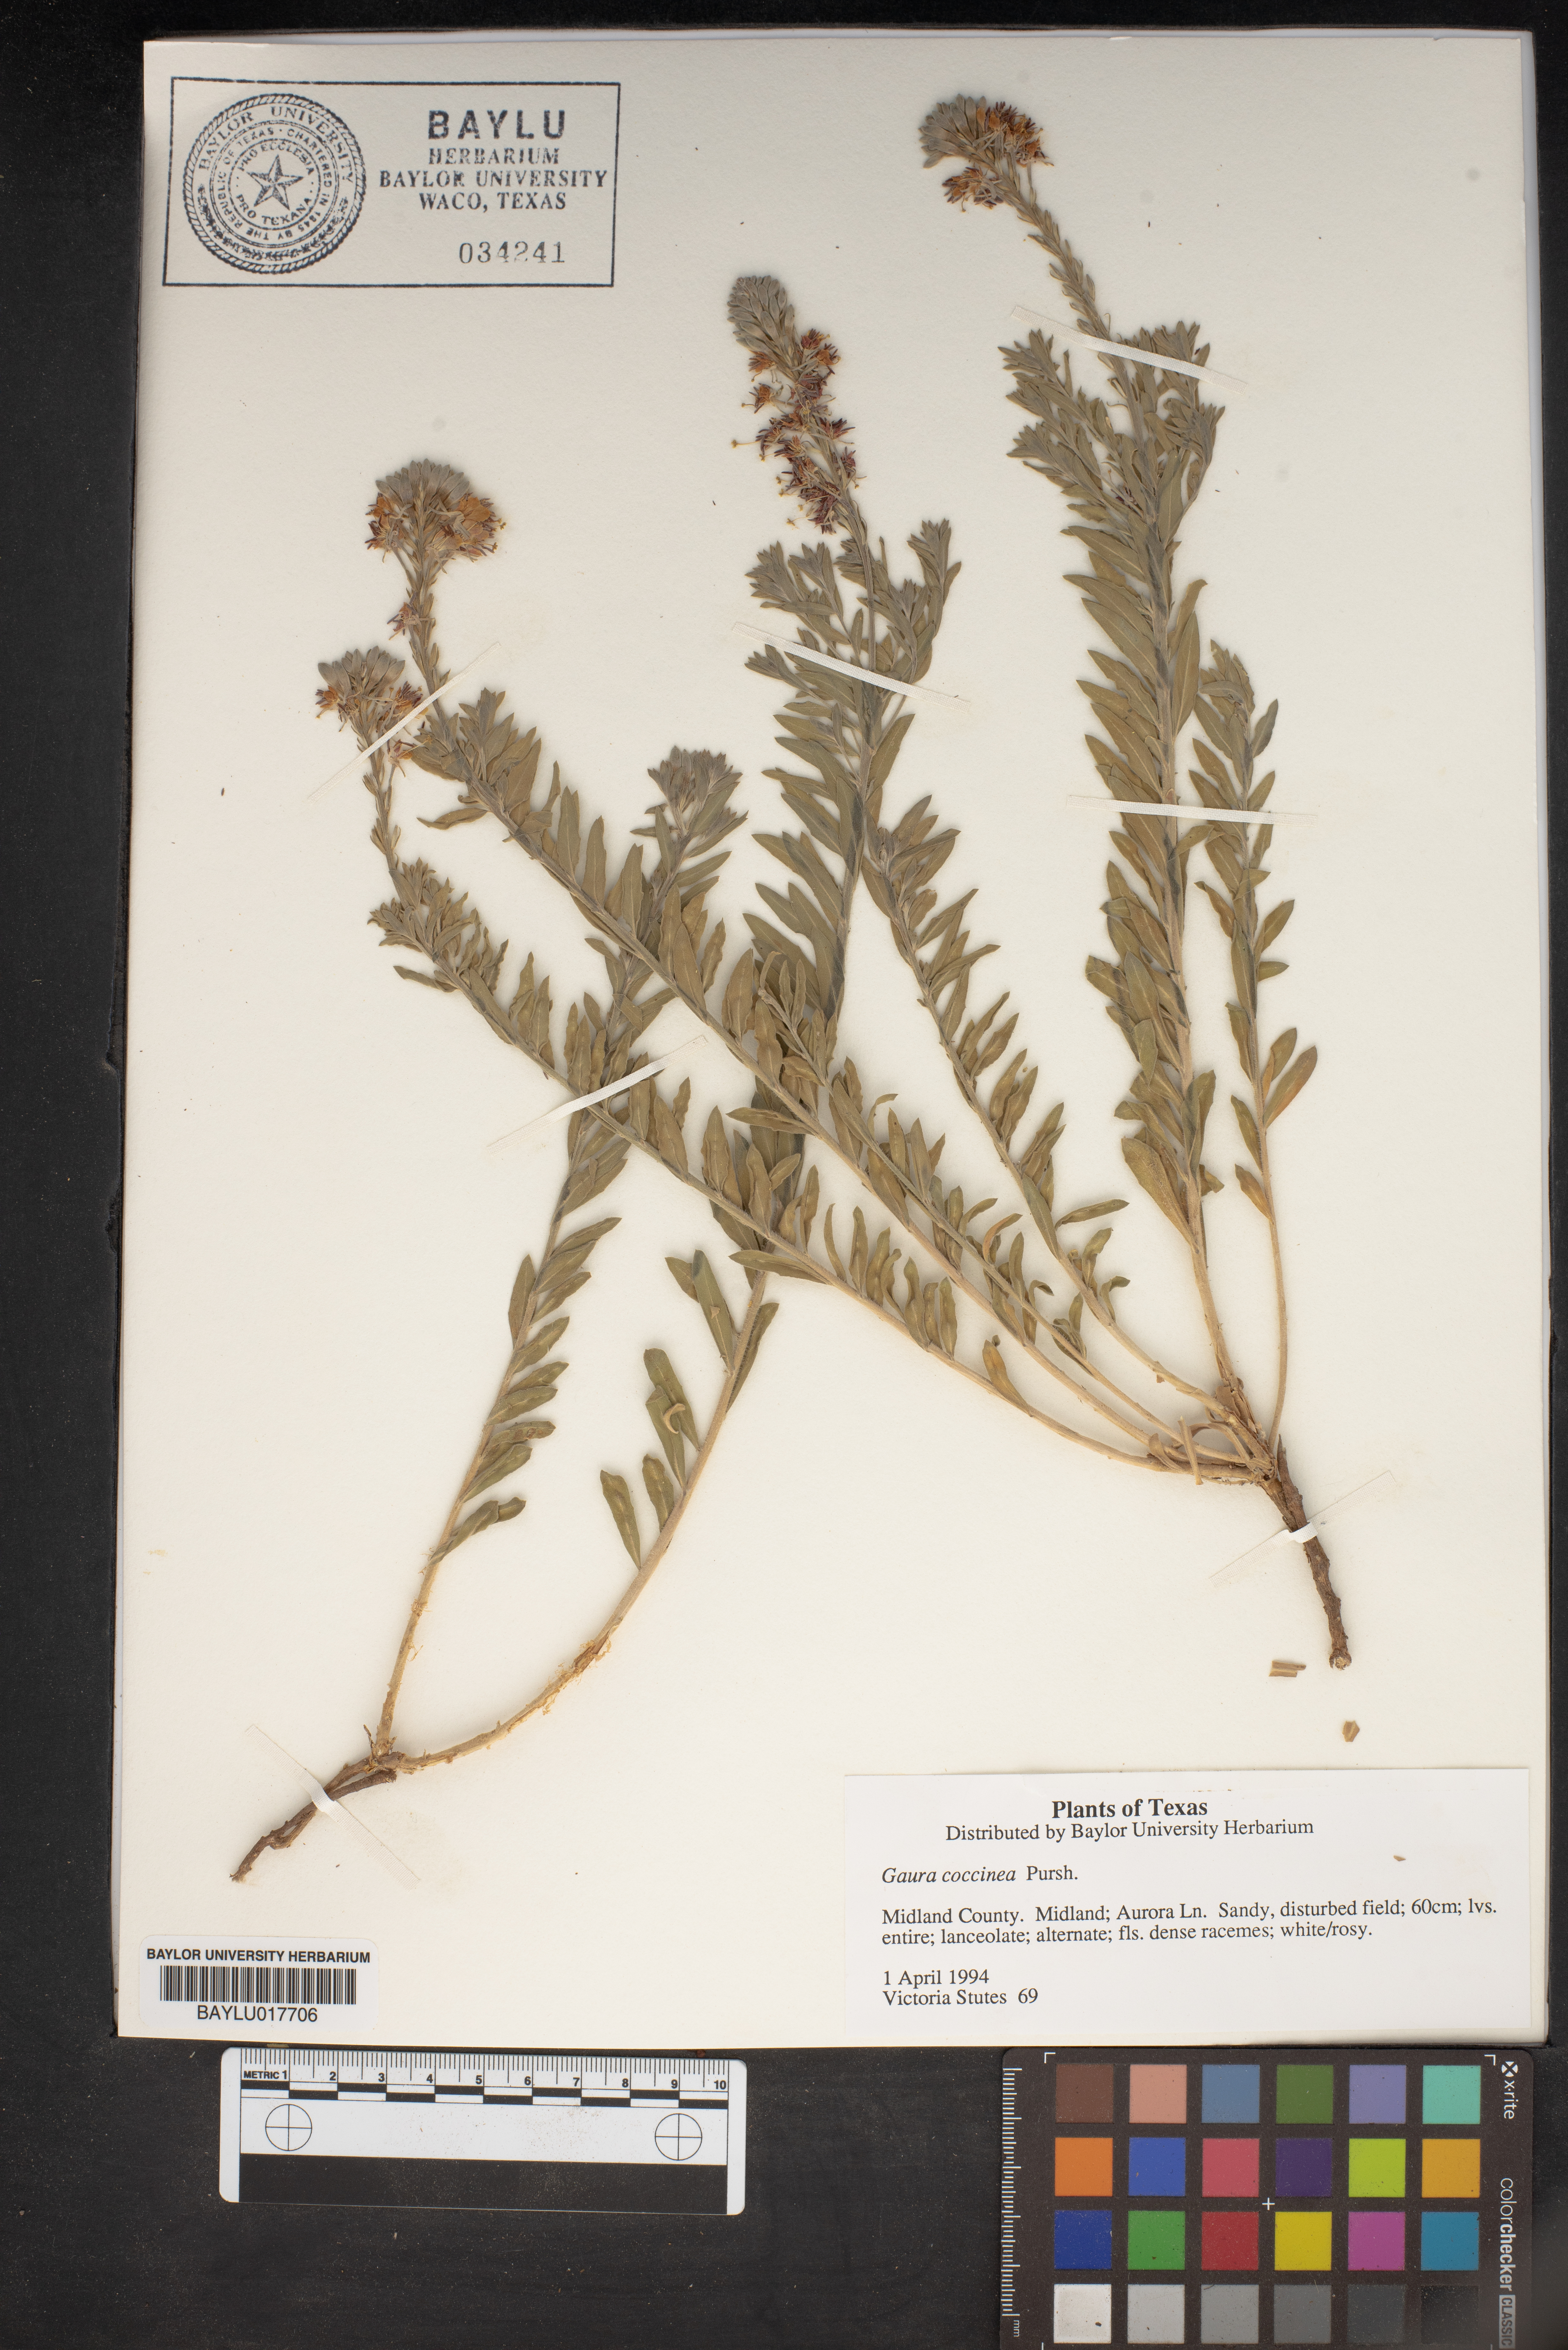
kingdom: Plantae
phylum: Tracheophyta
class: Magnoliopsida
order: Myrtales
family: Onagraceae
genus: Oenothera
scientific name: Oenothera suffrutescens
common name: Scarlet beeblossom
